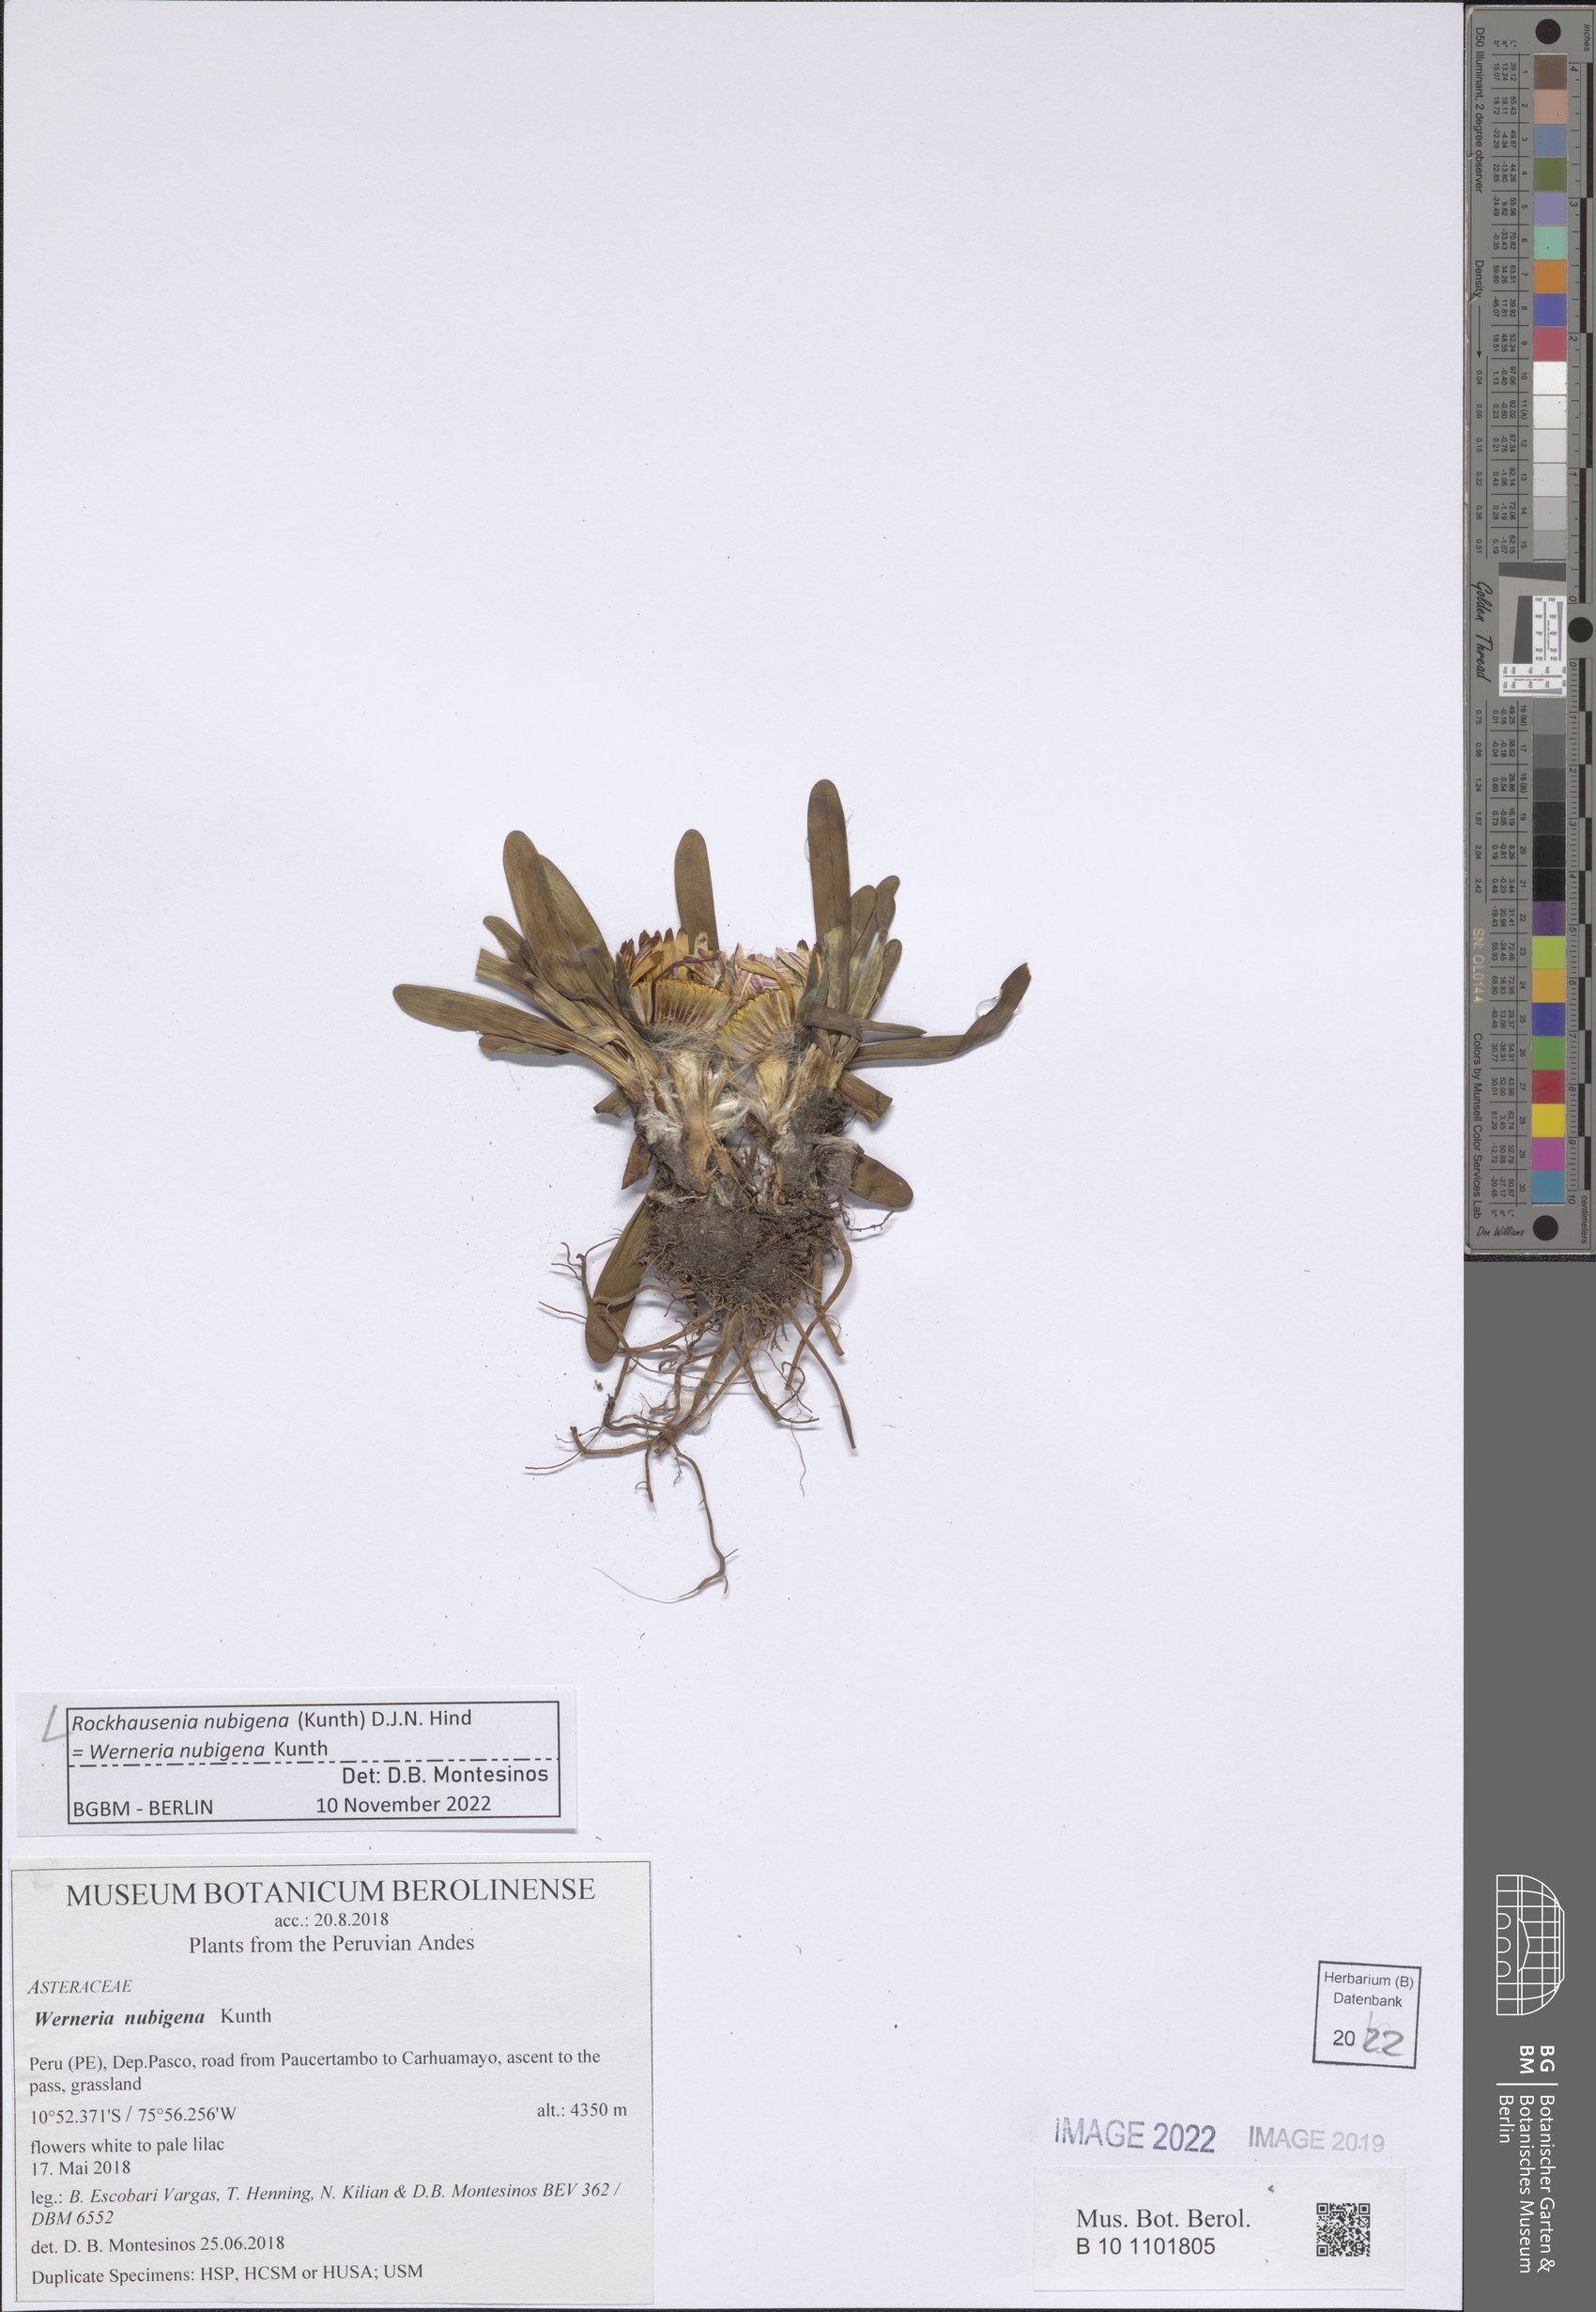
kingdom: Plantae
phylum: Tracheophyta
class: Magnoliopsida
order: Asterales
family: Asteraceae
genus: Rockhausenia
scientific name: Rockhausenia nubigena
